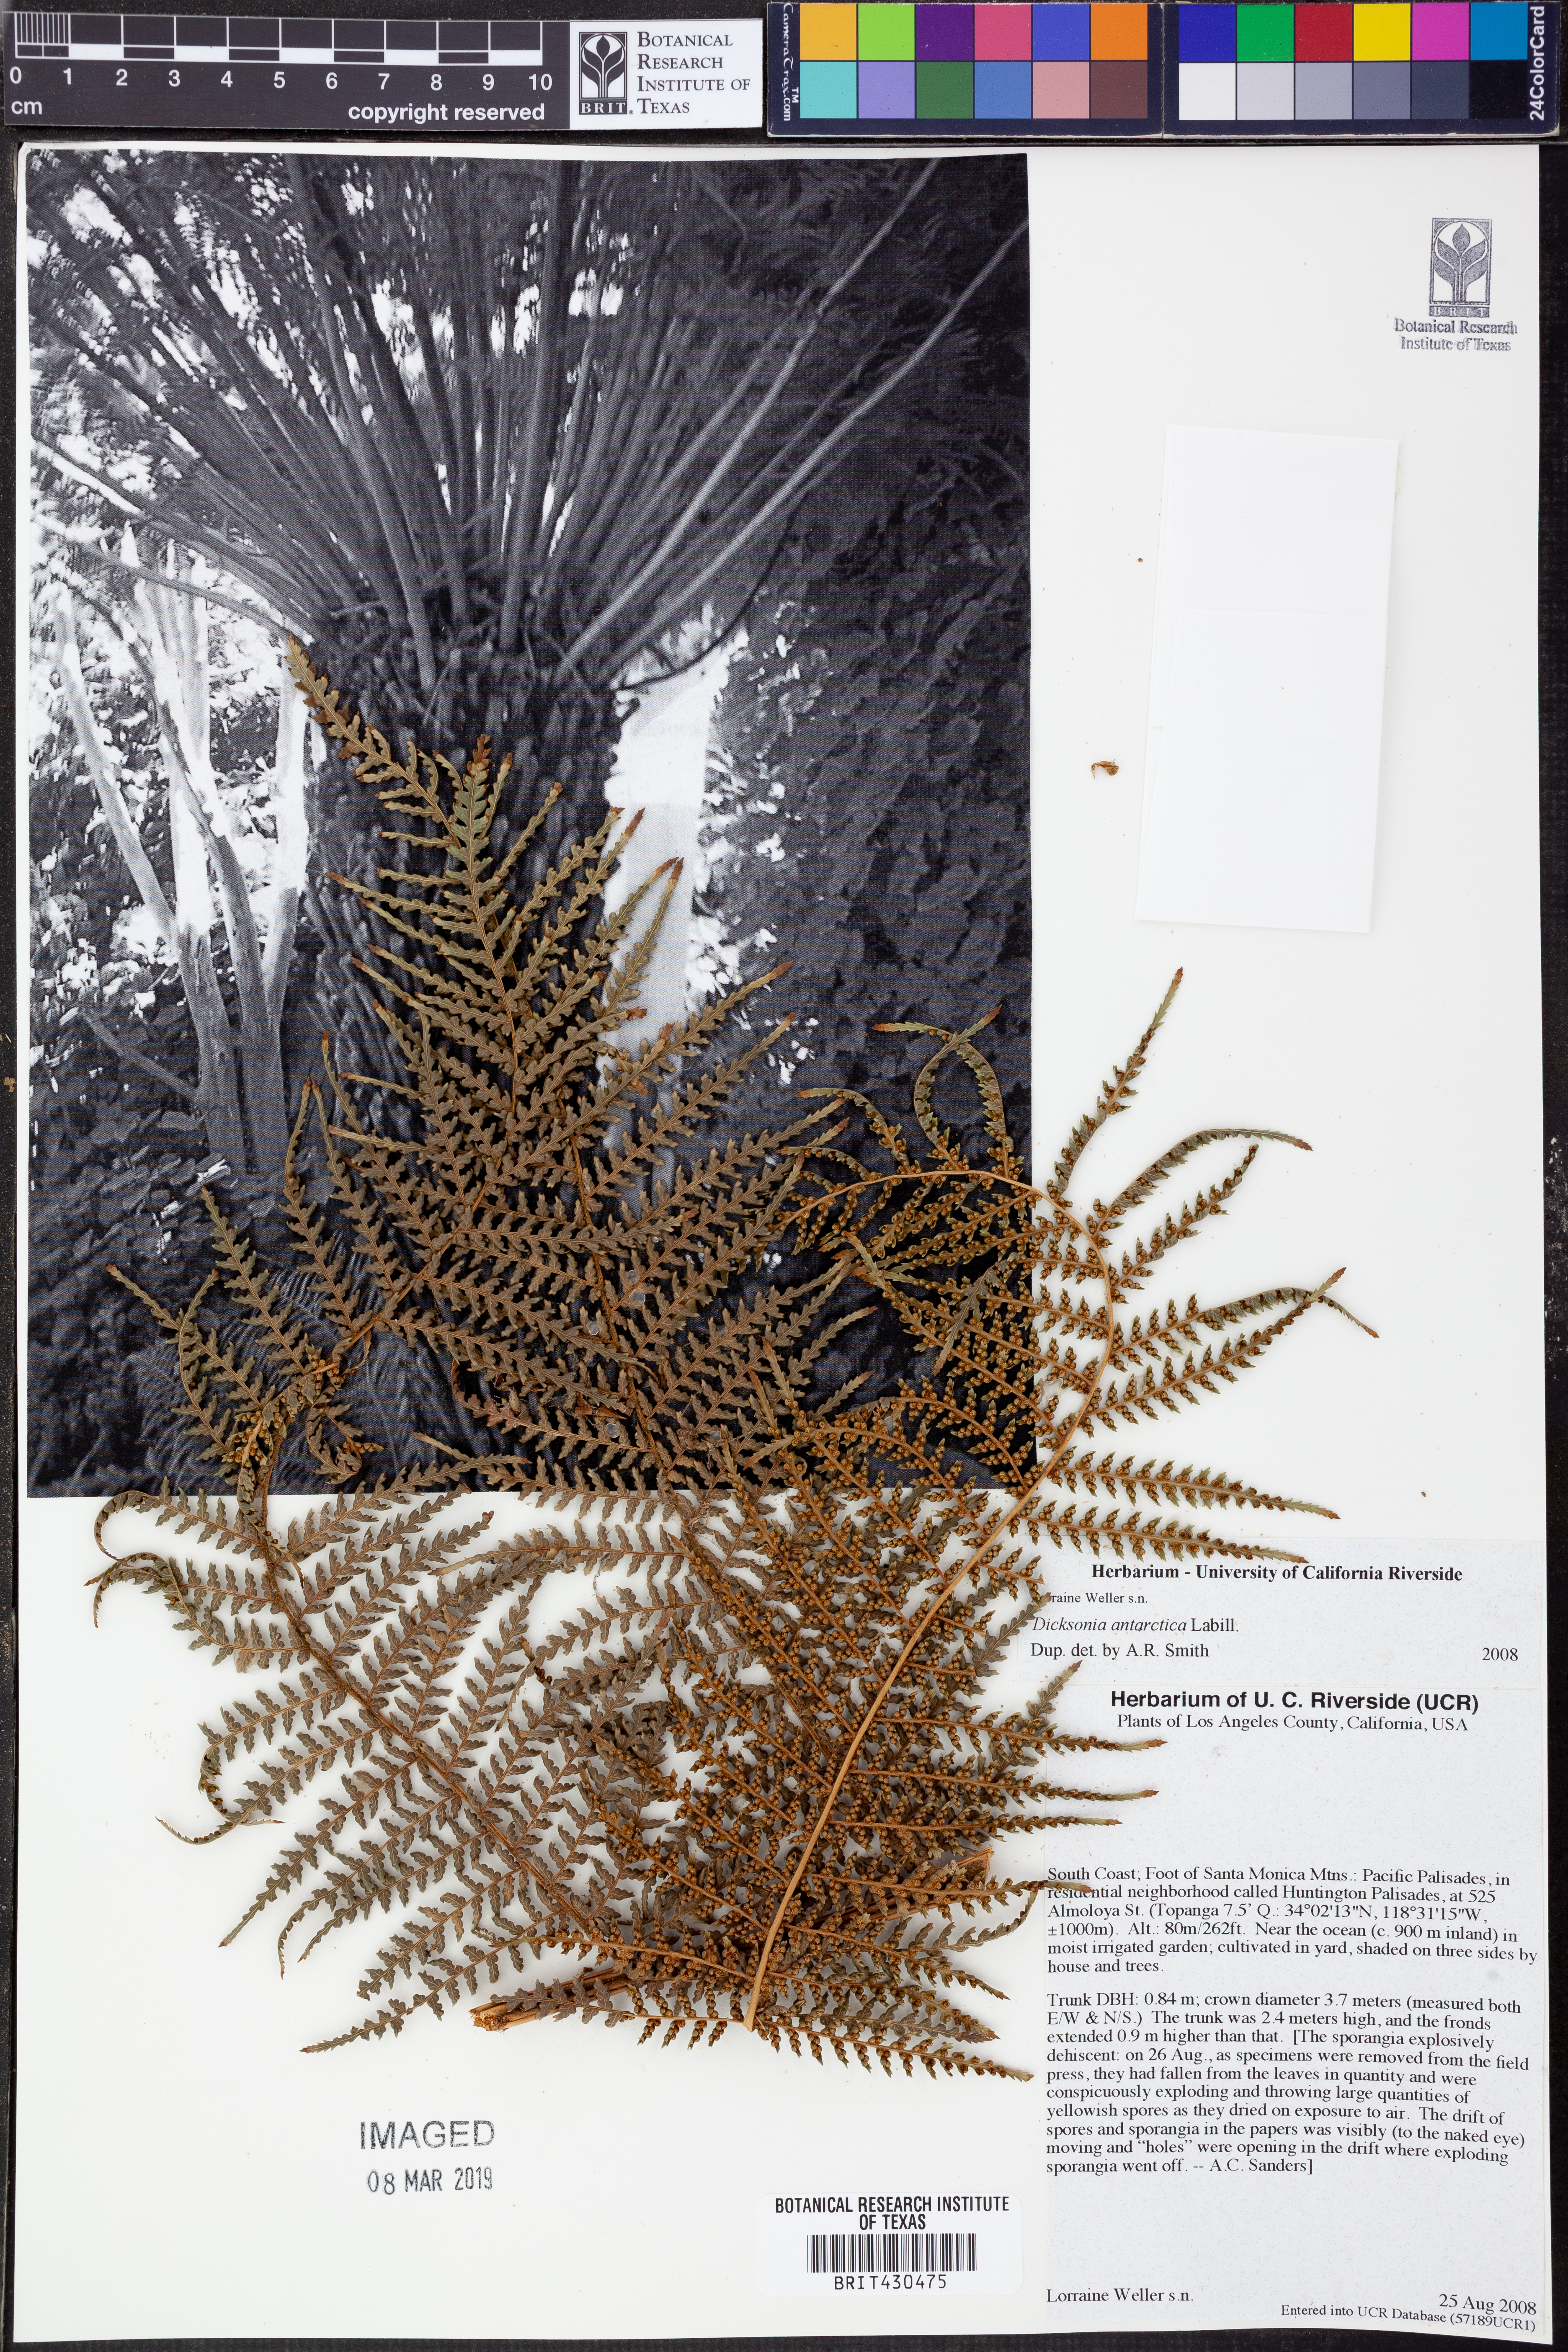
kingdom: Plantae
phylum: Tracheophyta
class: Polypodiopsida
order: Cyatheales
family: Dicksoniaceae
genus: Dicksonia
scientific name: Dicksonia antarctica
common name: Australian treefern
